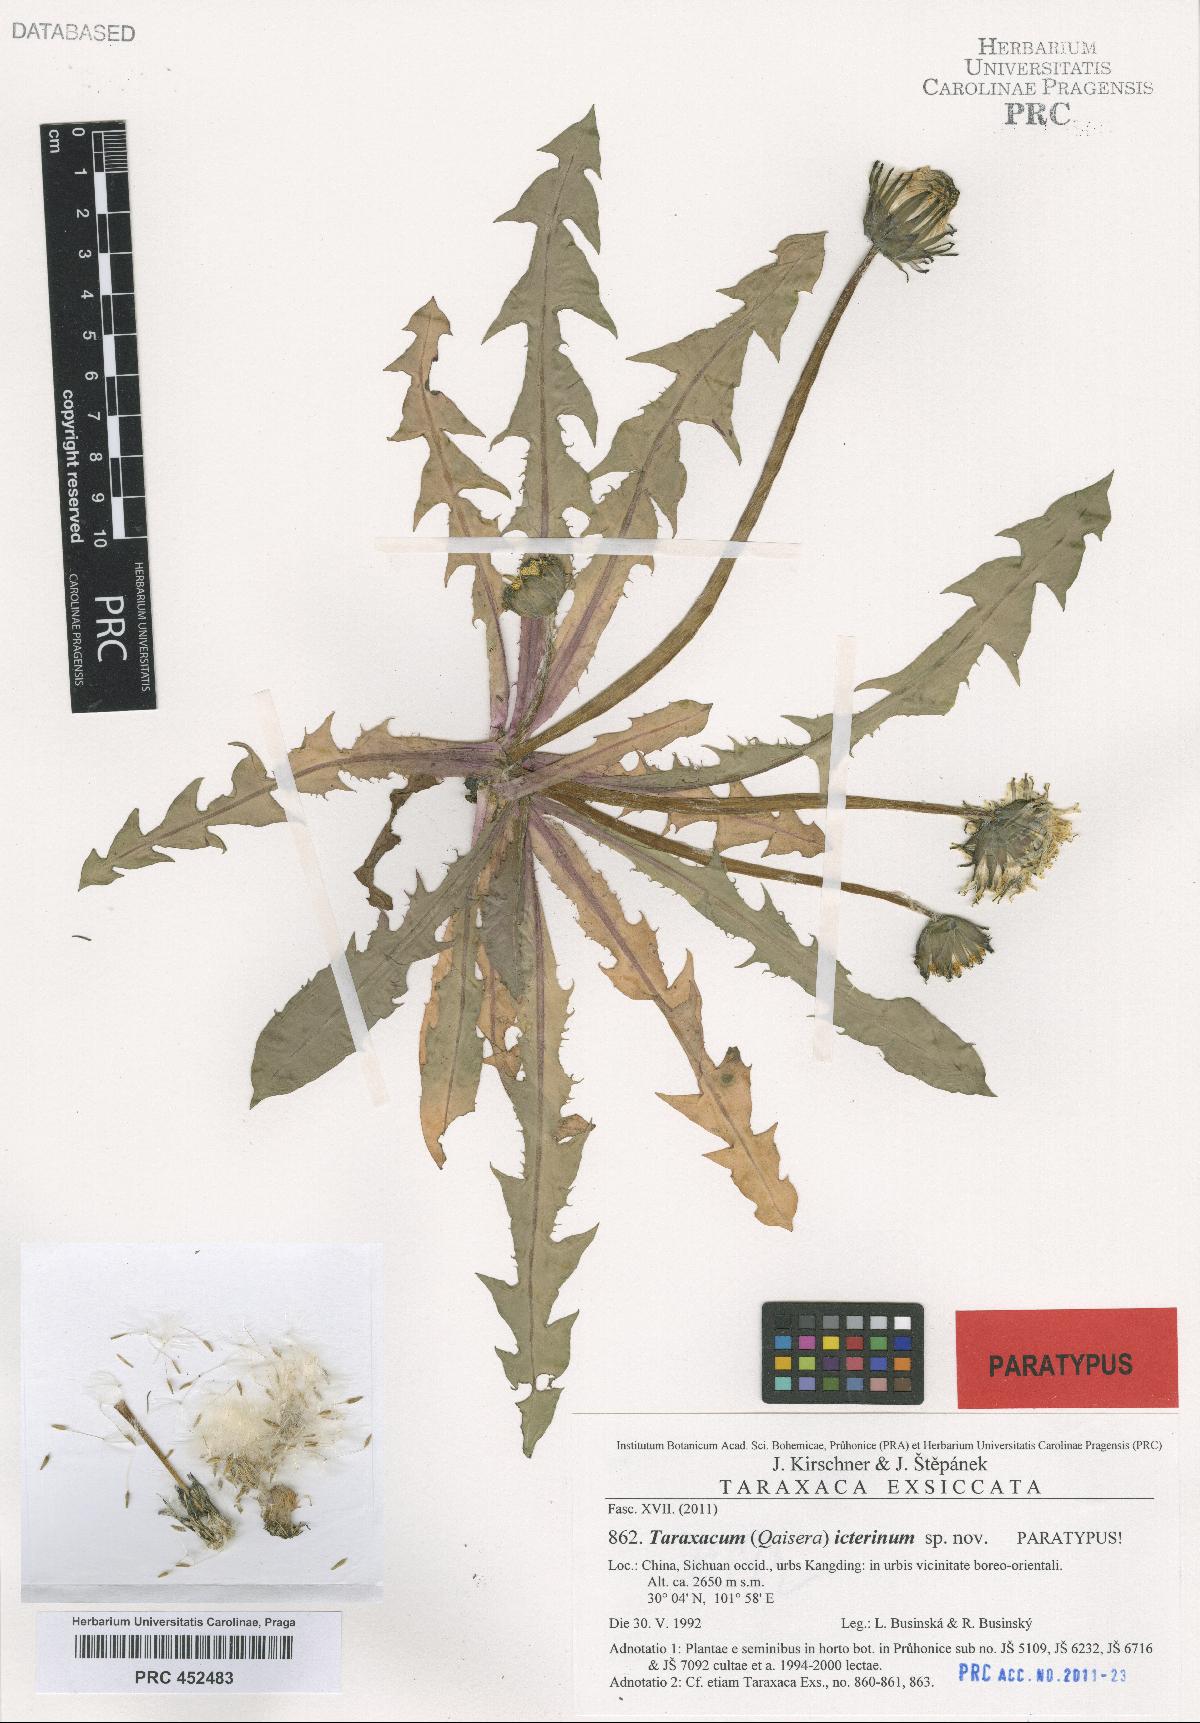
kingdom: Plantae
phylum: Tracheophyta
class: Magnoliopsida
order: Asterales
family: Asteraceae
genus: Taraxacum
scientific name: Taraxacum icterinum
